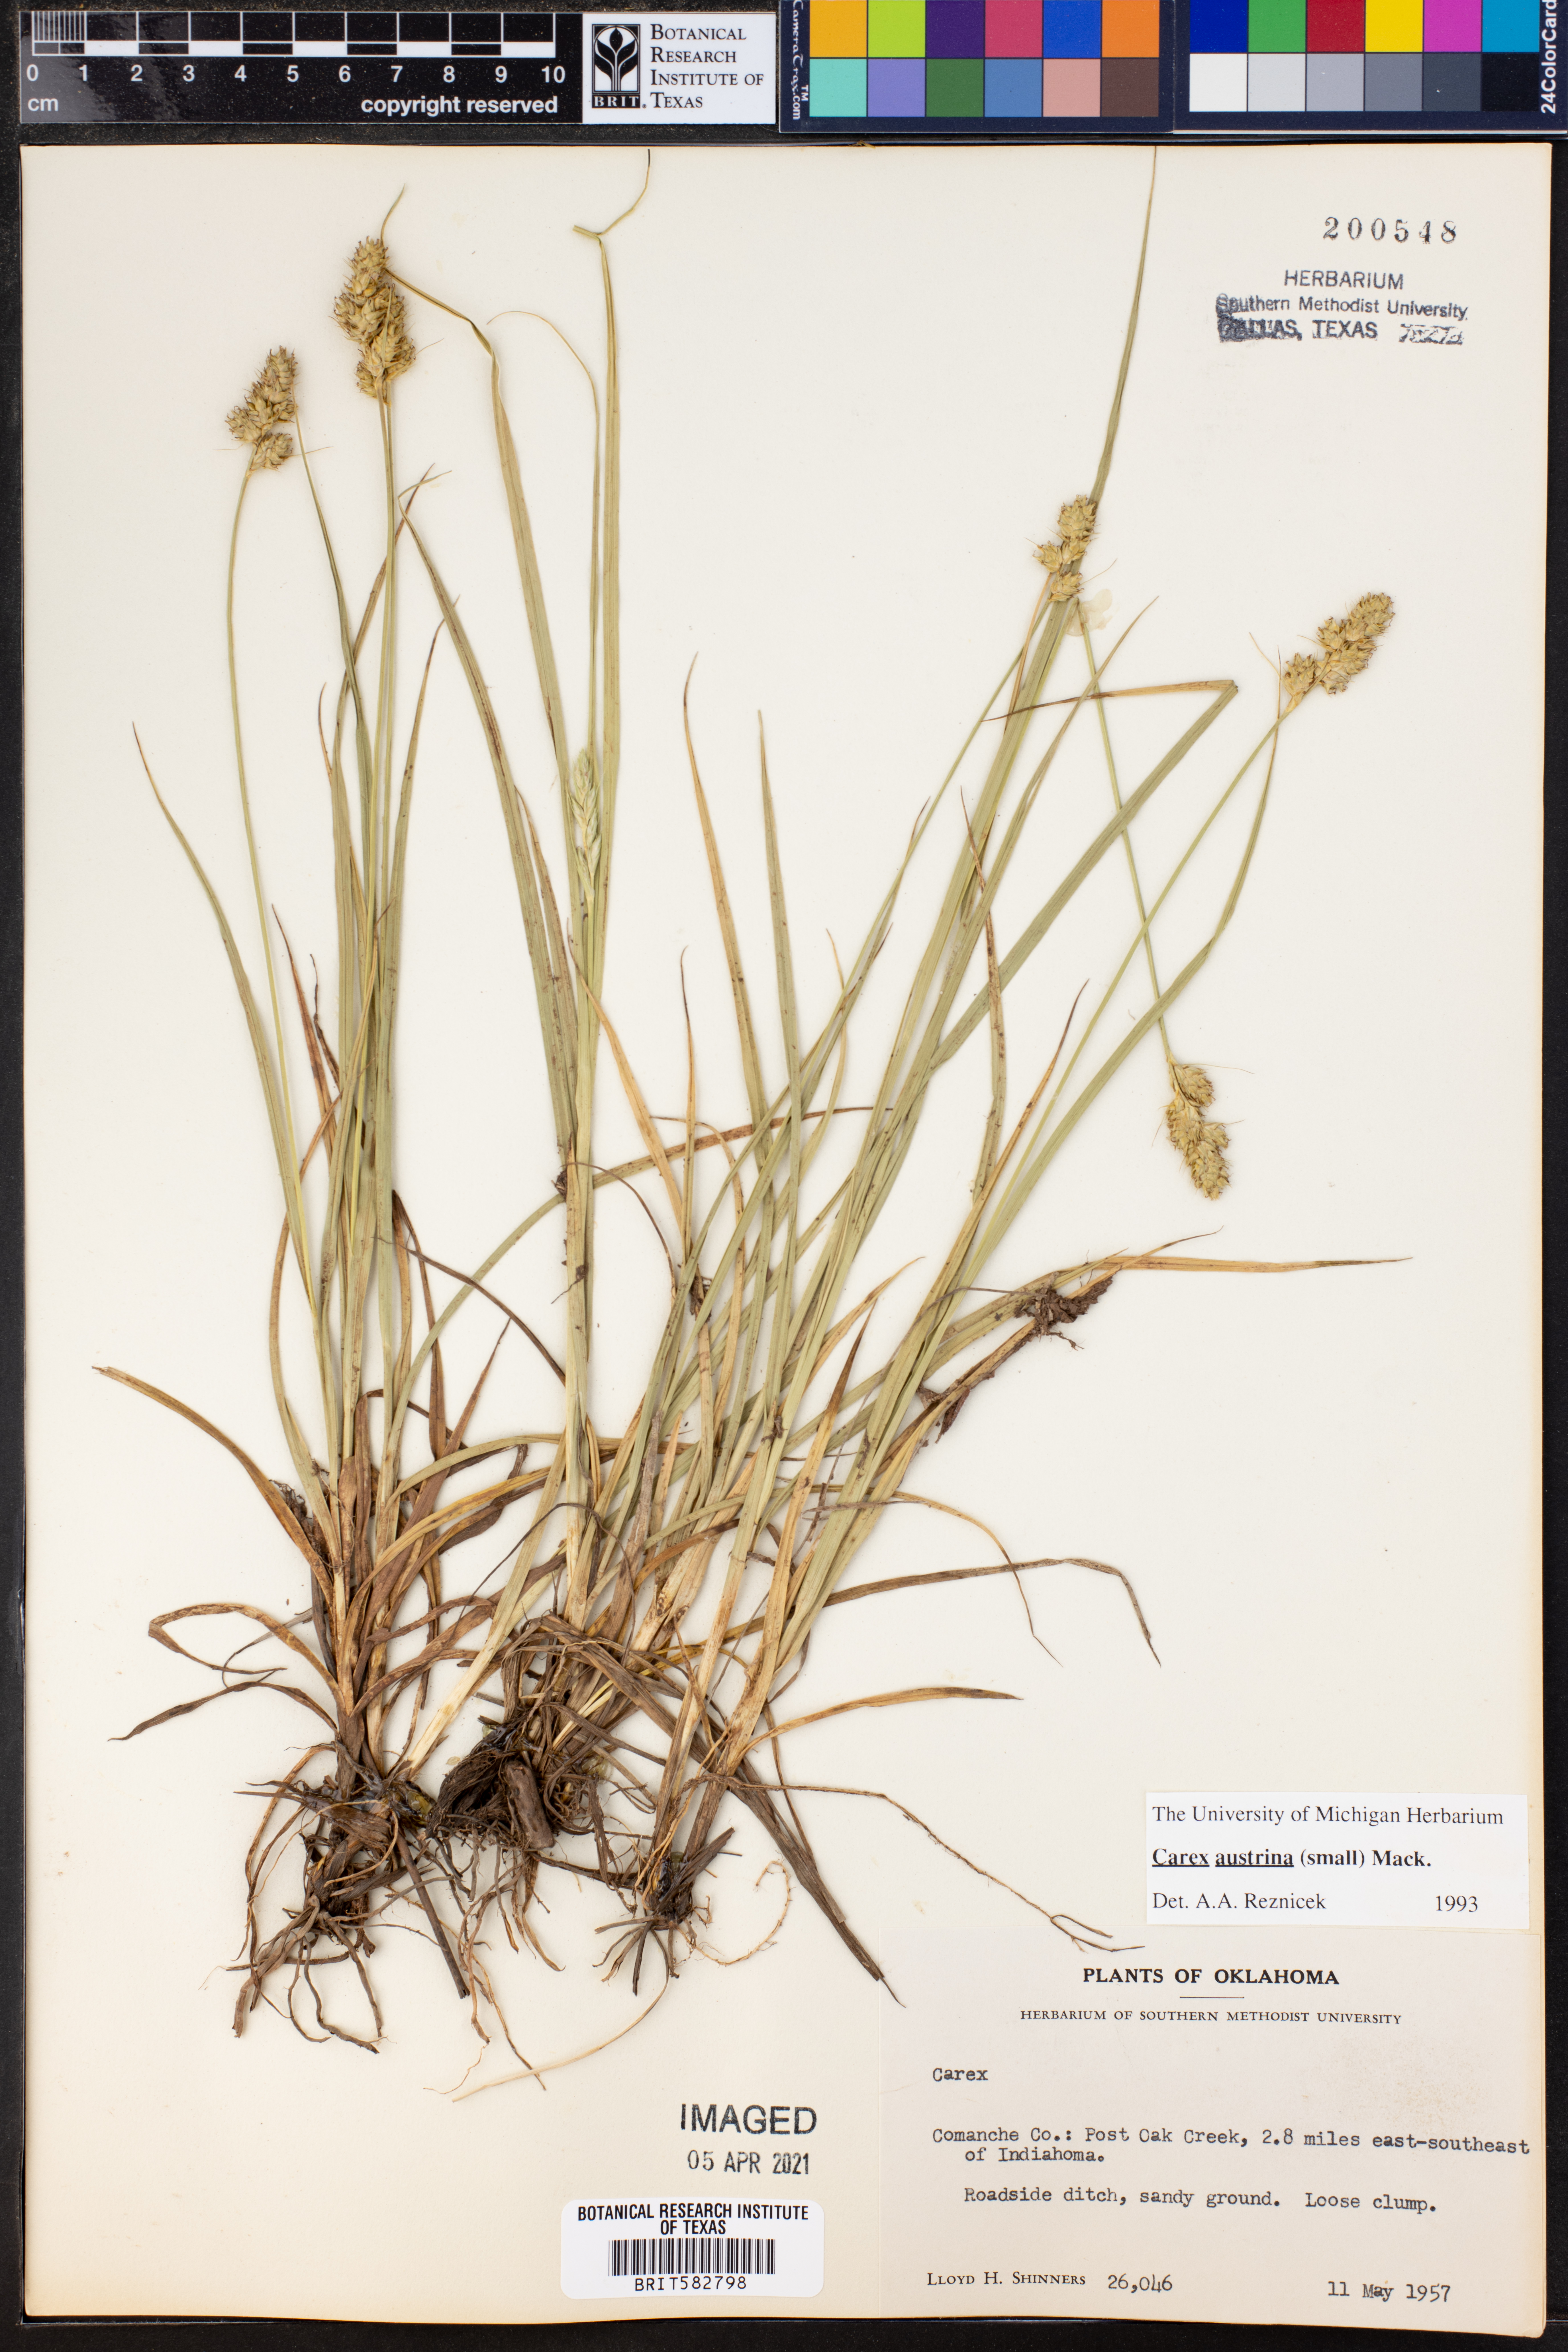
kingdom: Plantae
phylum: Tracheophyta
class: Liliopsida
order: Poales
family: Cyperaceae
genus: Carex
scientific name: Carex austrina
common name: Southern sedge
